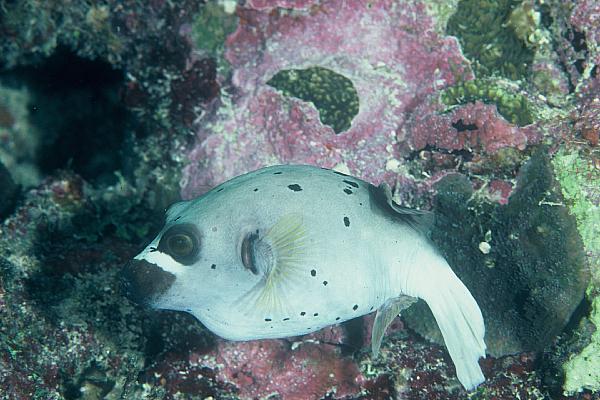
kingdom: Animalia
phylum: Chordata
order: Tetraodontiformes
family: Tetraodontidae
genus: Arothron
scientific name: Arothron nigropunctatus
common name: Black spotted blow fish
